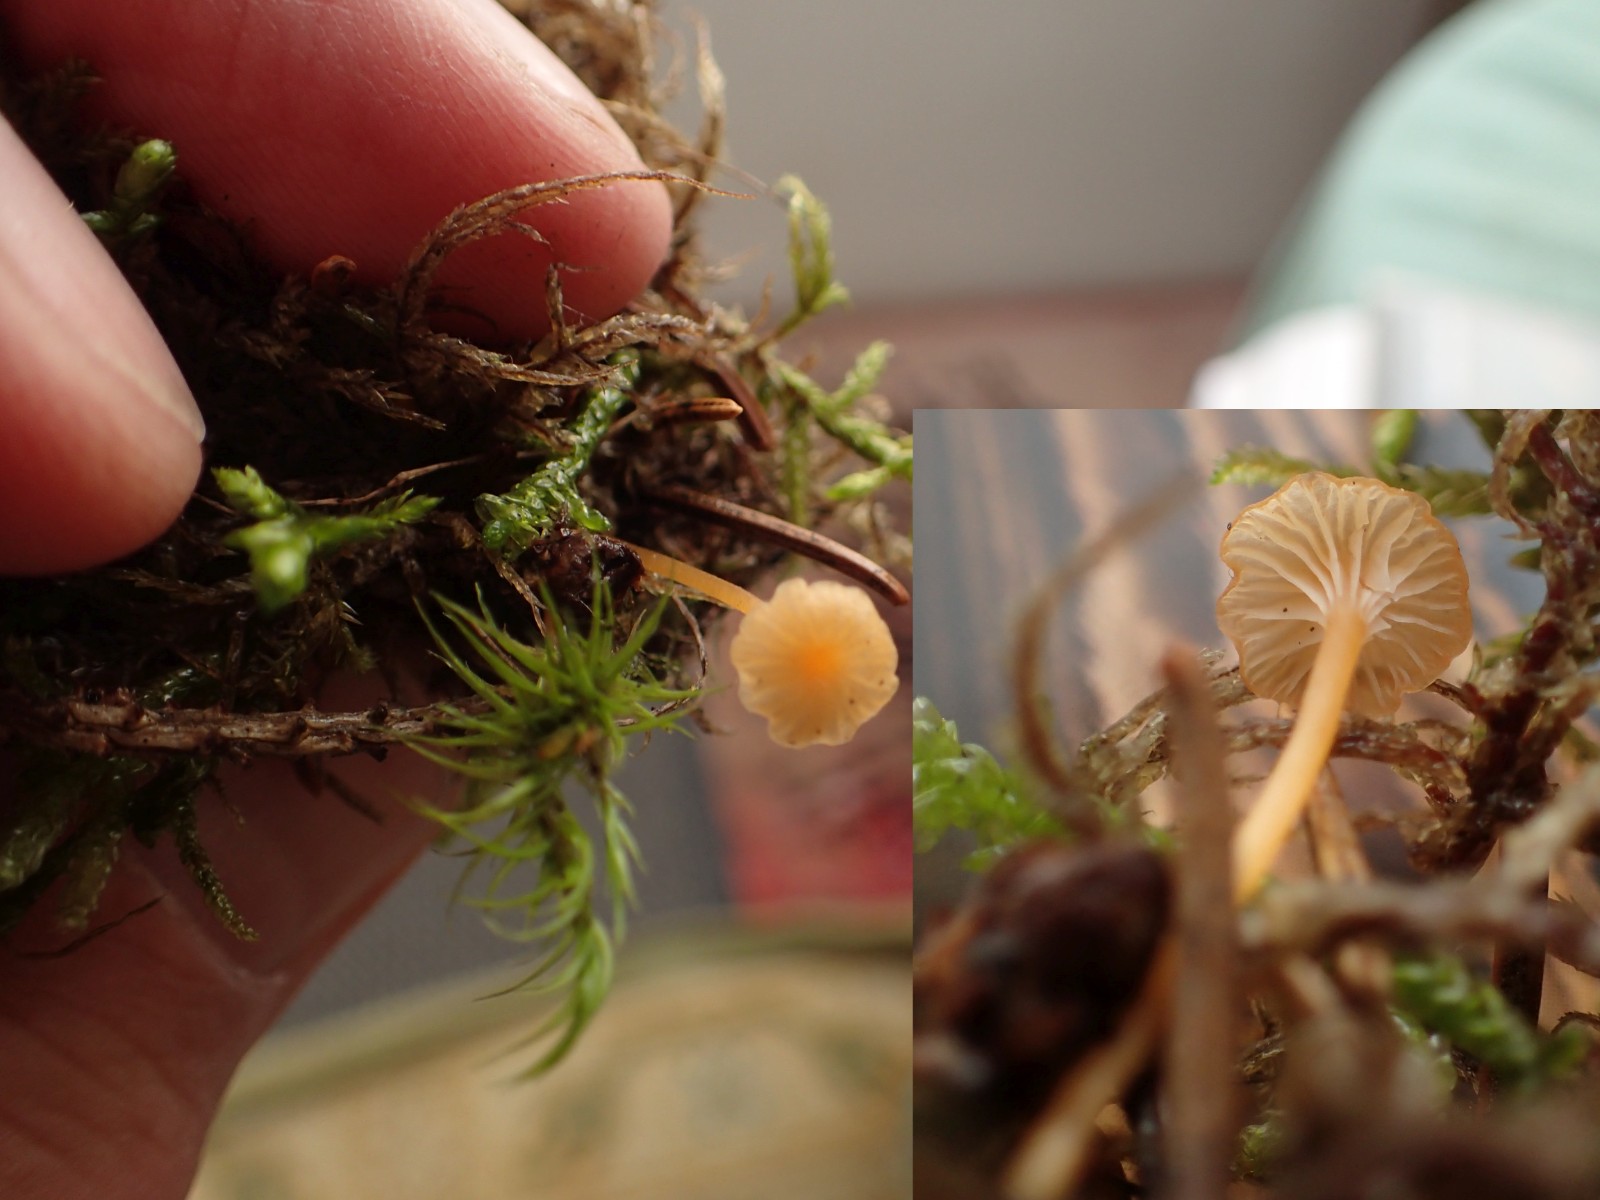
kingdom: Fungi
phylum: Basidiomycota
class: Agaricomycetes
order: Hymenochaetales
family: Rickenellaceae
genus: Rickenella
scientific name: Rickenella fibula
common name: orange mosnavlehat
